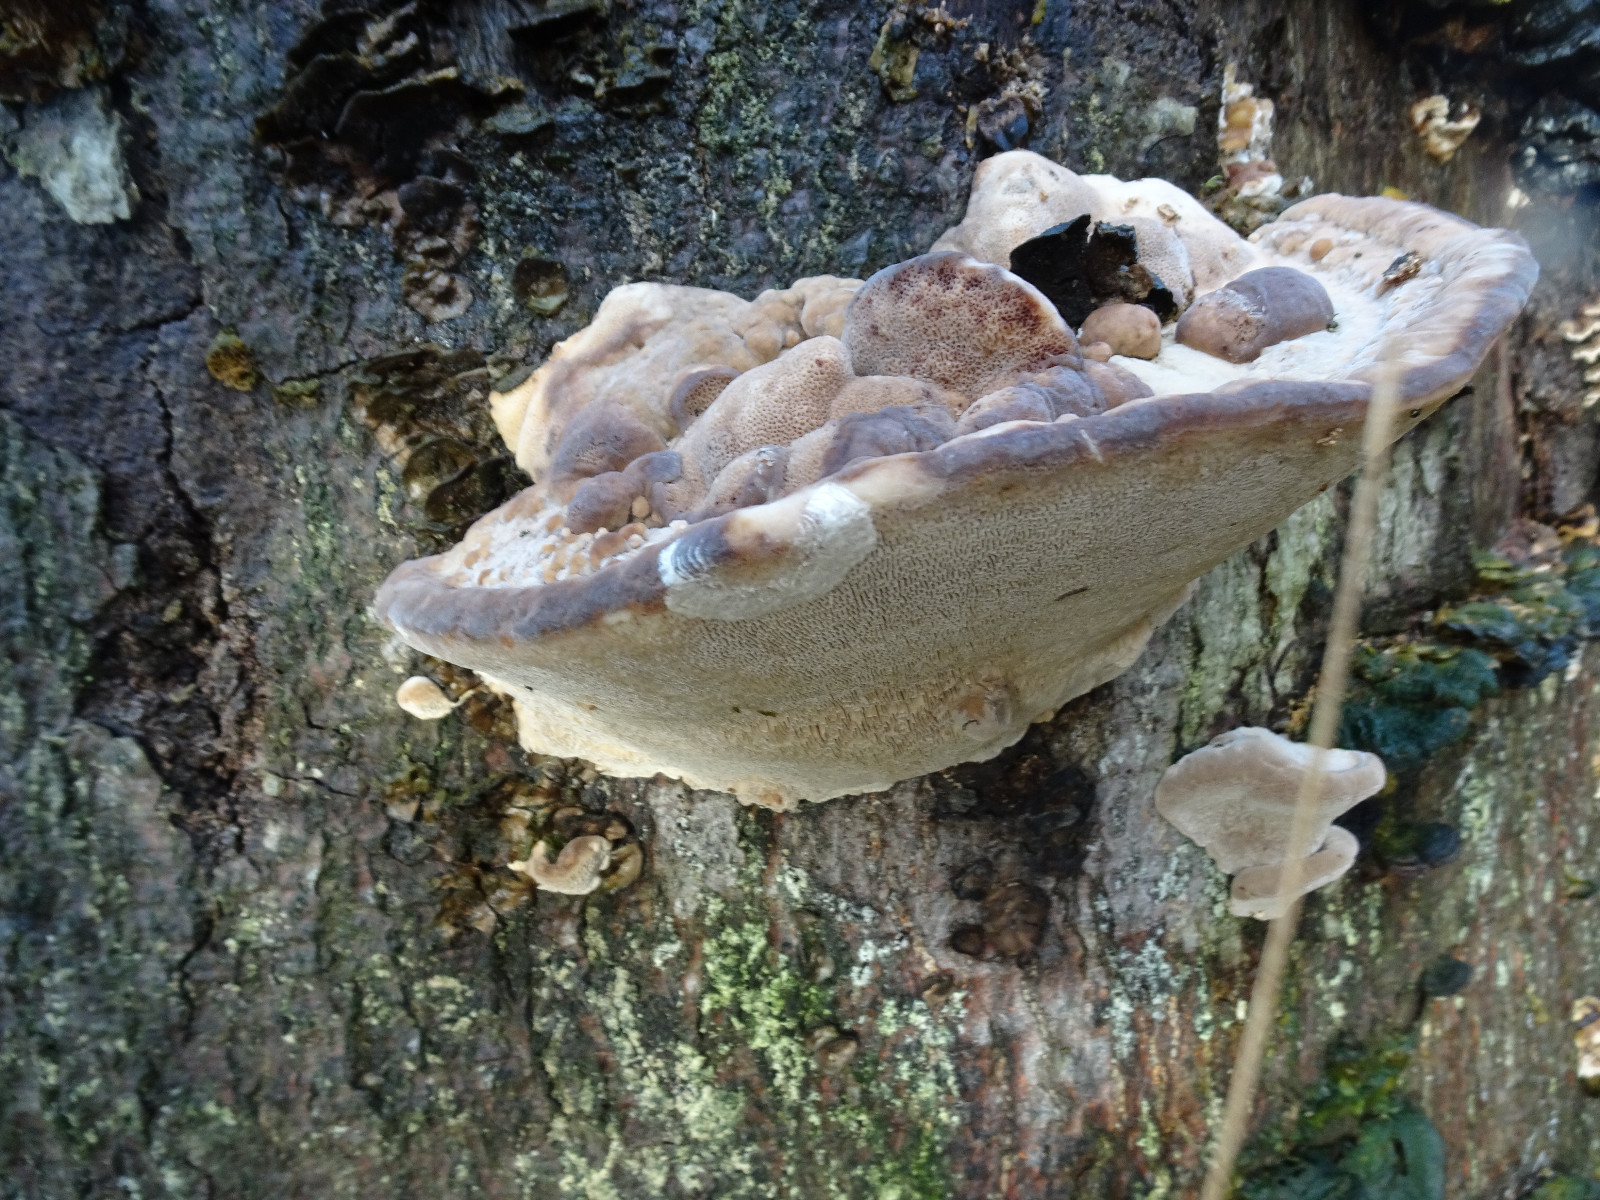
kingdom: Fungi
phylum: Basidiomycota
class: Agaricomycetes
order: Polyporales
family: Polyporaceae
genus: Trametes
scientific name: Trametes gibbosa
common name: puklet læderporesvamp
